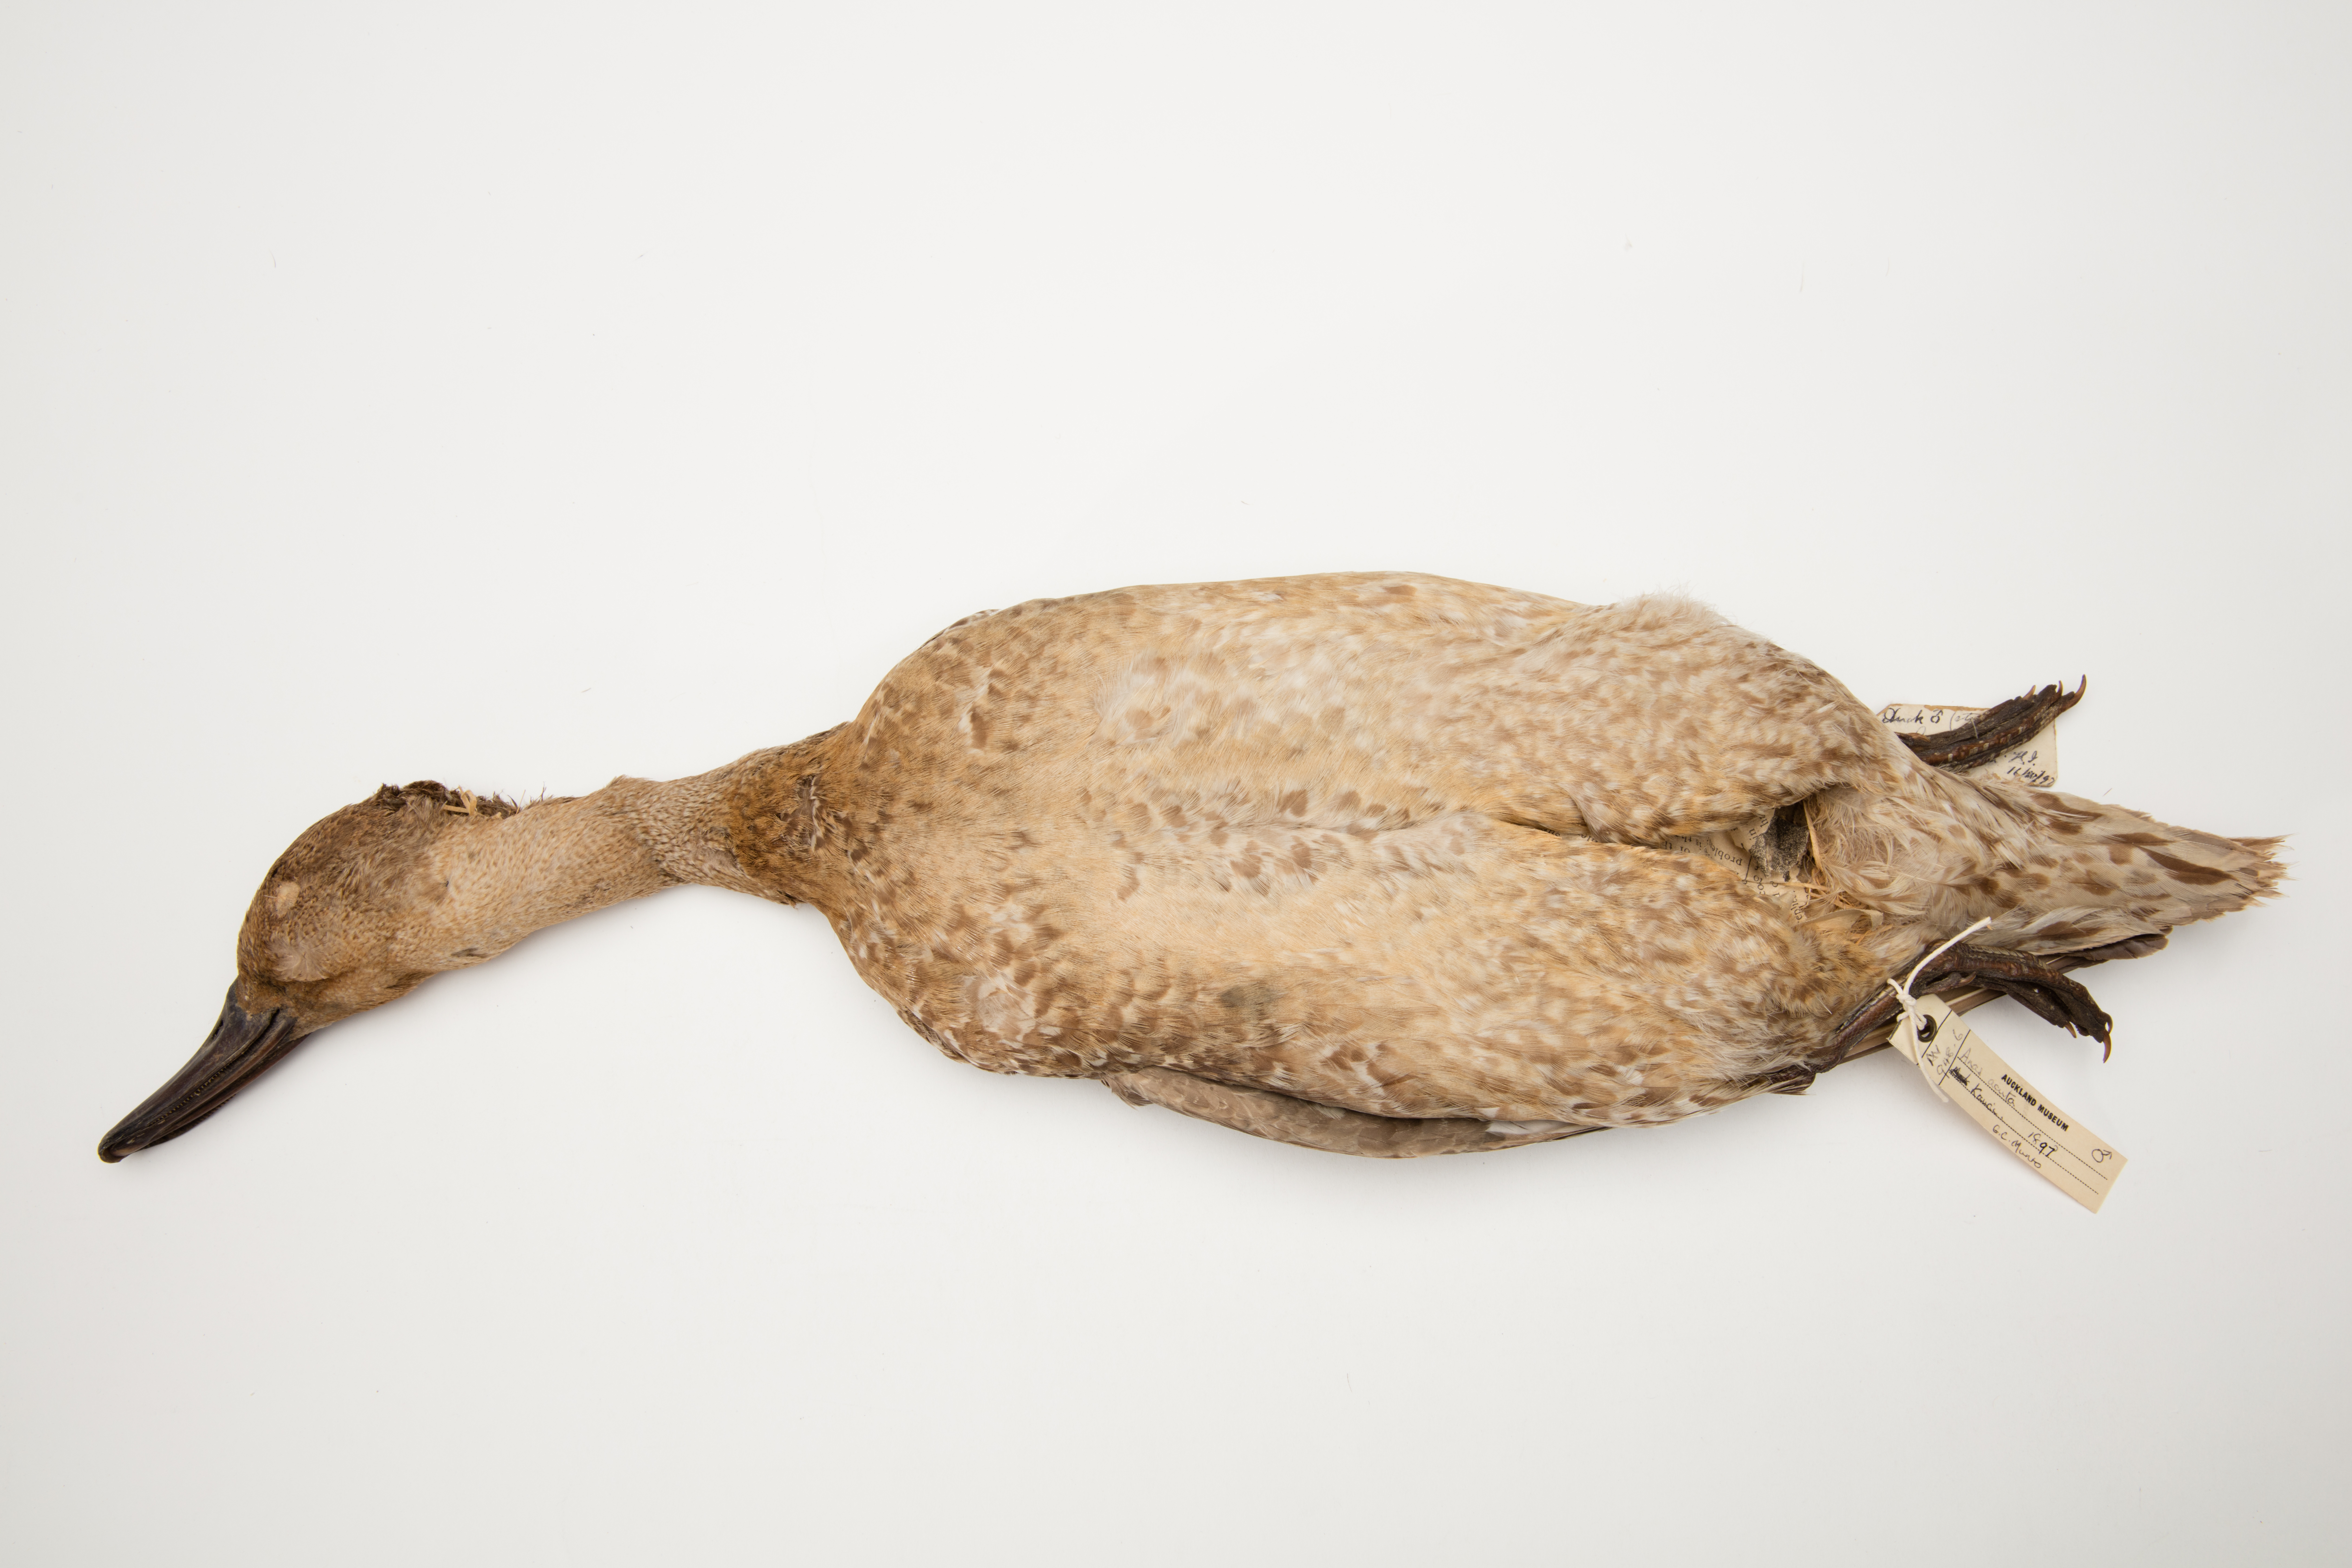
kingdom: Animalia
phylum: Chordata
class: Aves
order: Anseriformes
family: Anatidae
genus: Anas
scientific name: Anas acuta
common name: Northern pintail
